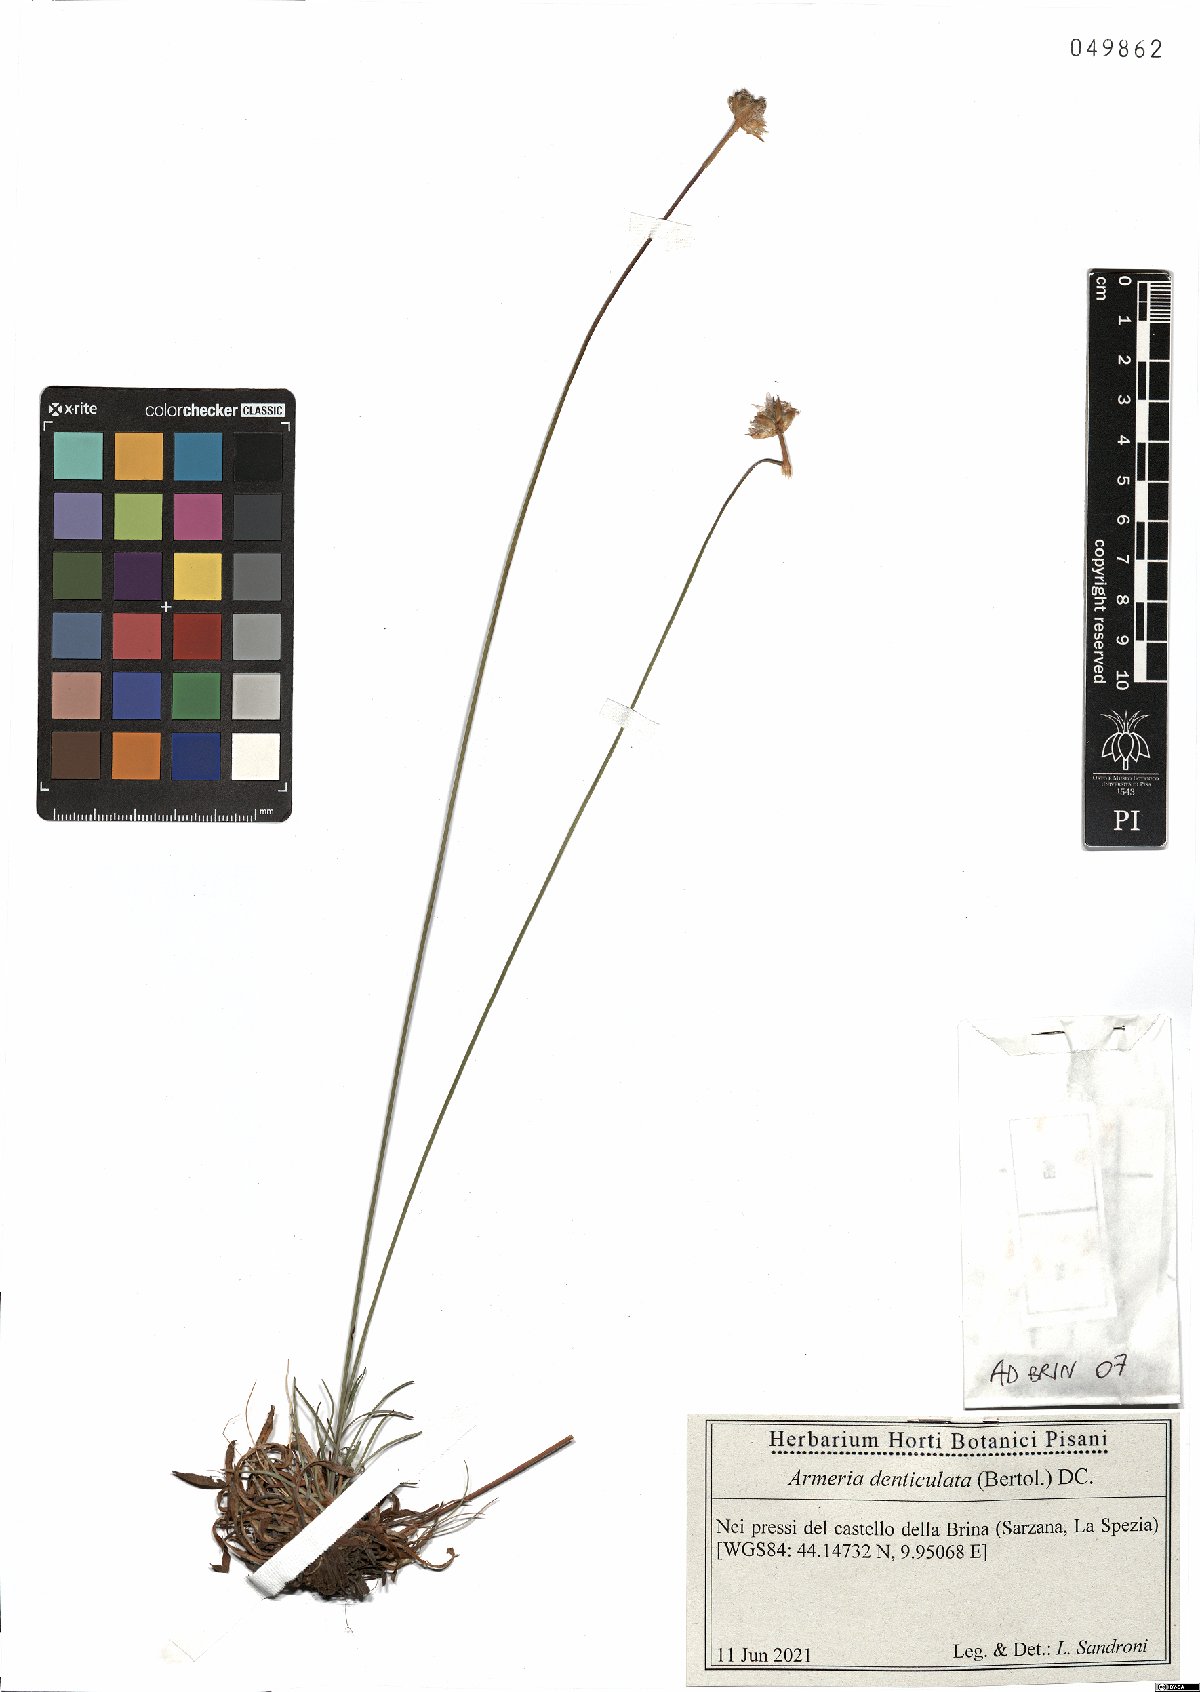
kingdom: Plantae
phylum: Tracheophyta
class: Magnoliopsida
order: Caryophyllales
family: Plumbaginaceae
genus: Armeria
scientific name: Armeria denticulata
